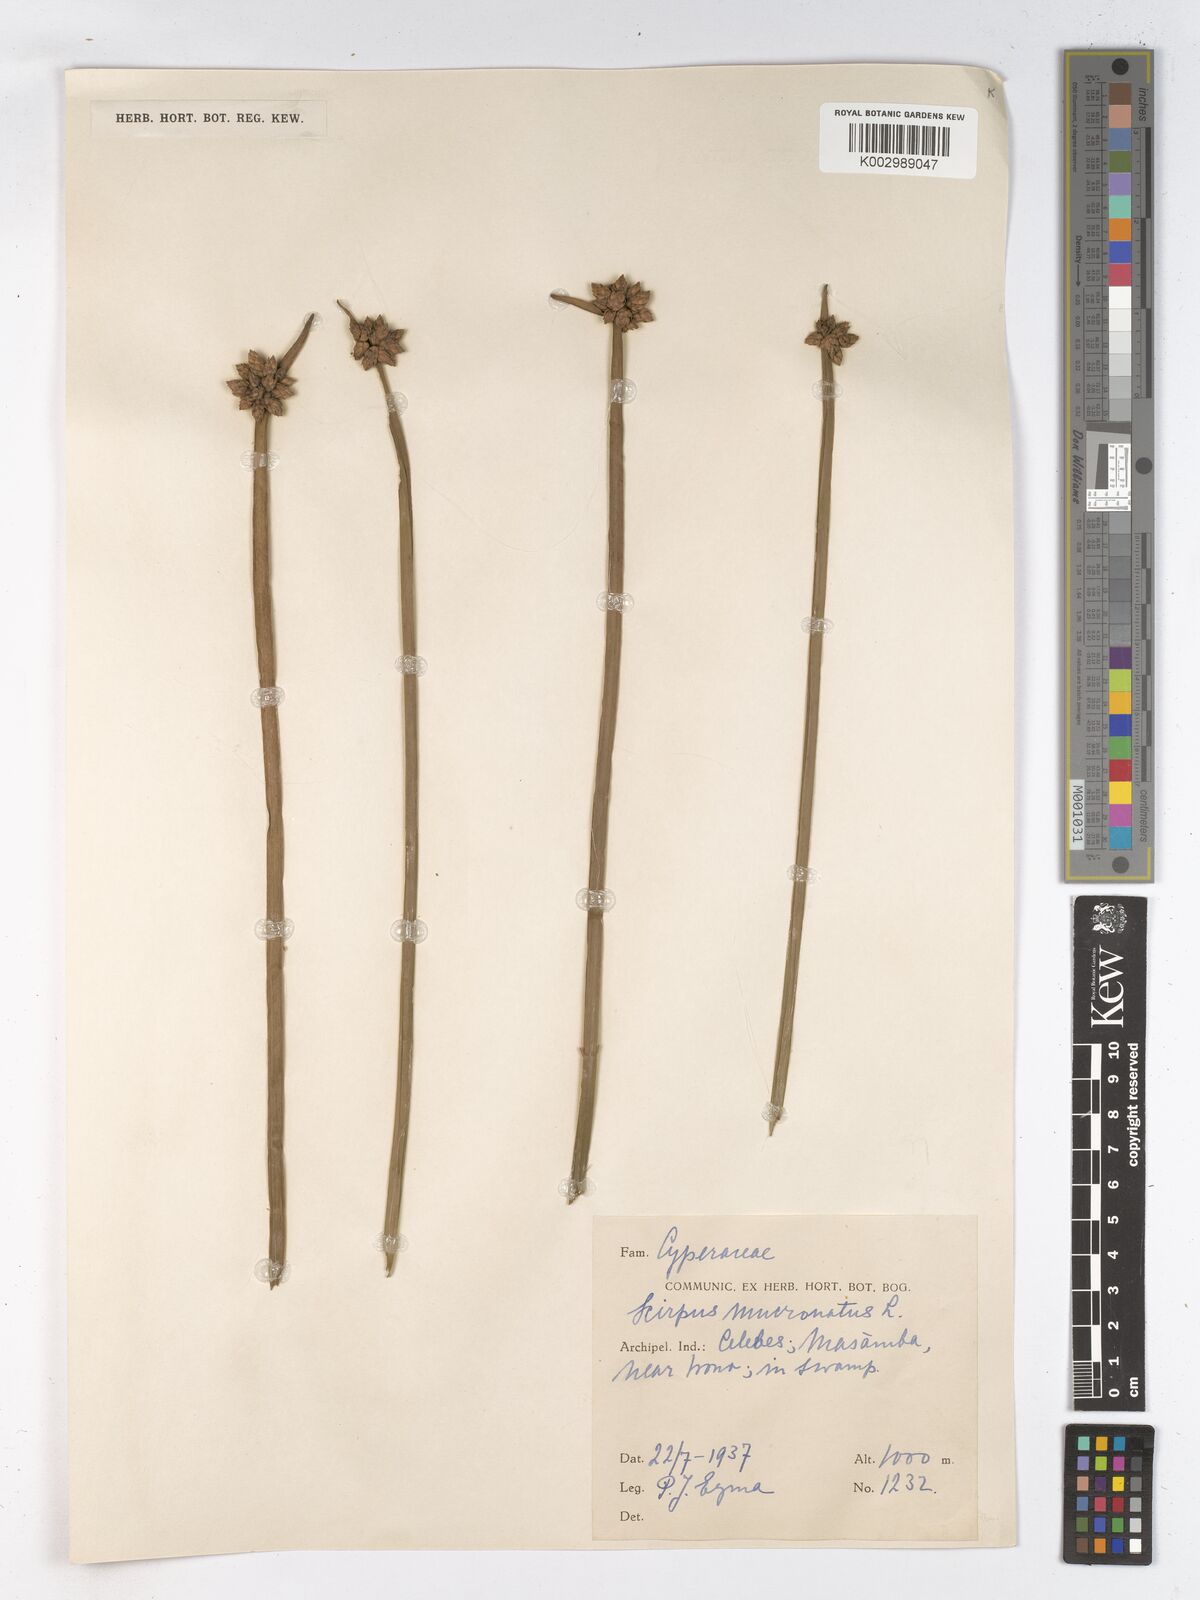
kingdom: Plantae
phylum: Tracheophyta
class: Liliopsida
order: Poales
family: Cyperaceae
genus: Schoenoplectiella
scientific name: Schoenoplectiella mucronata
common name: Bog bulrush
